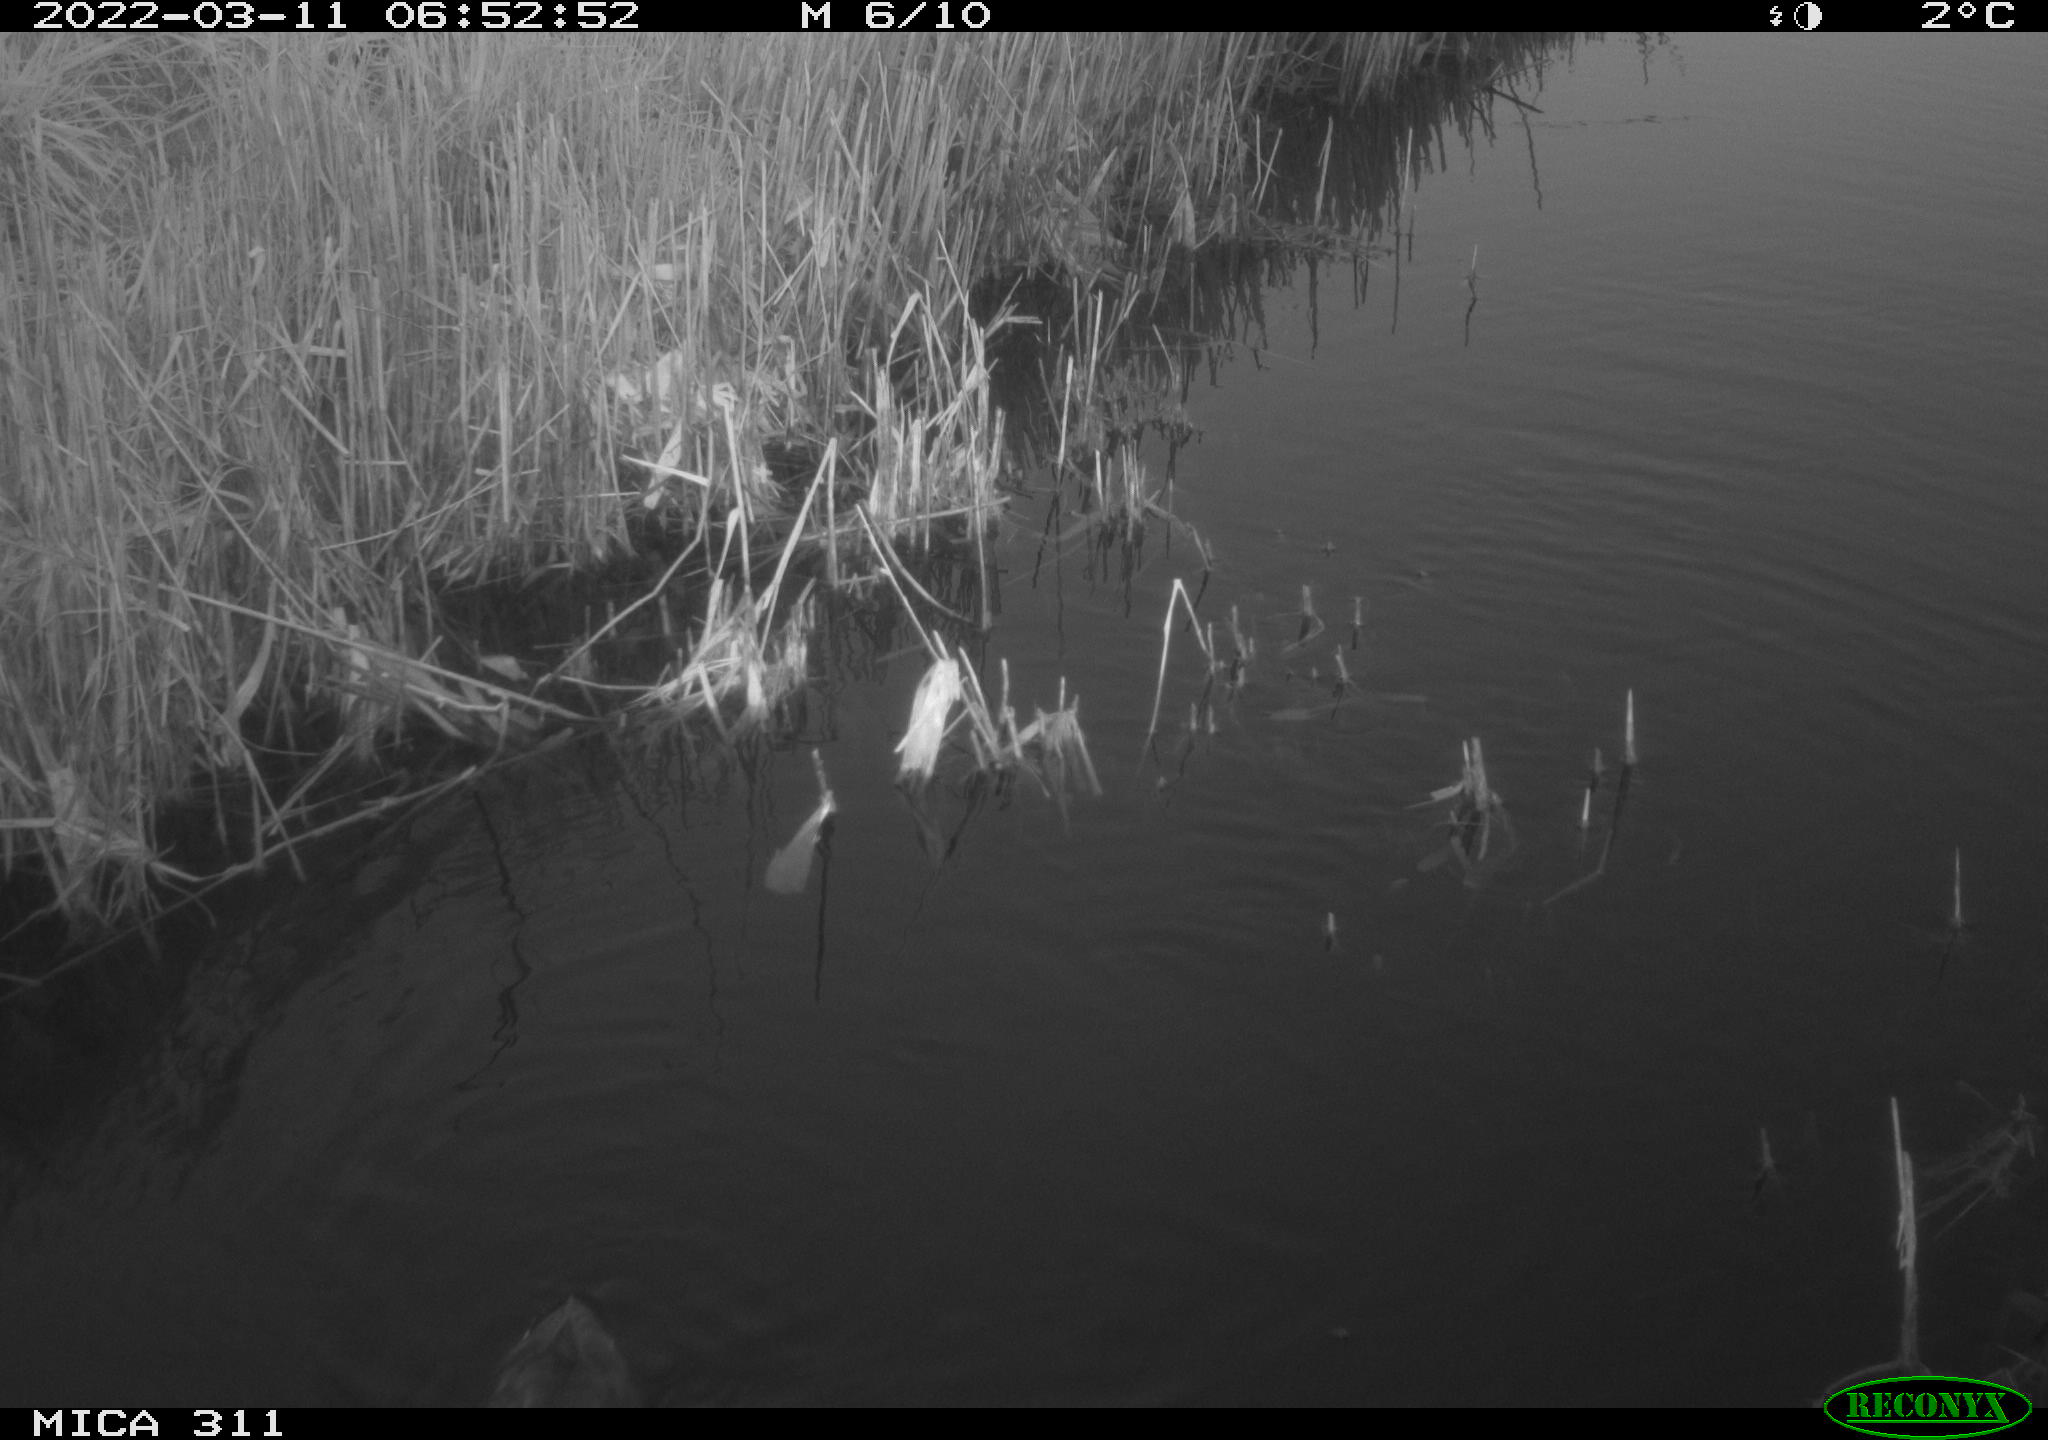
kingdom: Animalia
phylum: Chordata
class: Aves
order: Gruiformes
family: Rallidae
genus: Gallinula
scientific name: Gallinula chloropus
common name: Common moorhen
